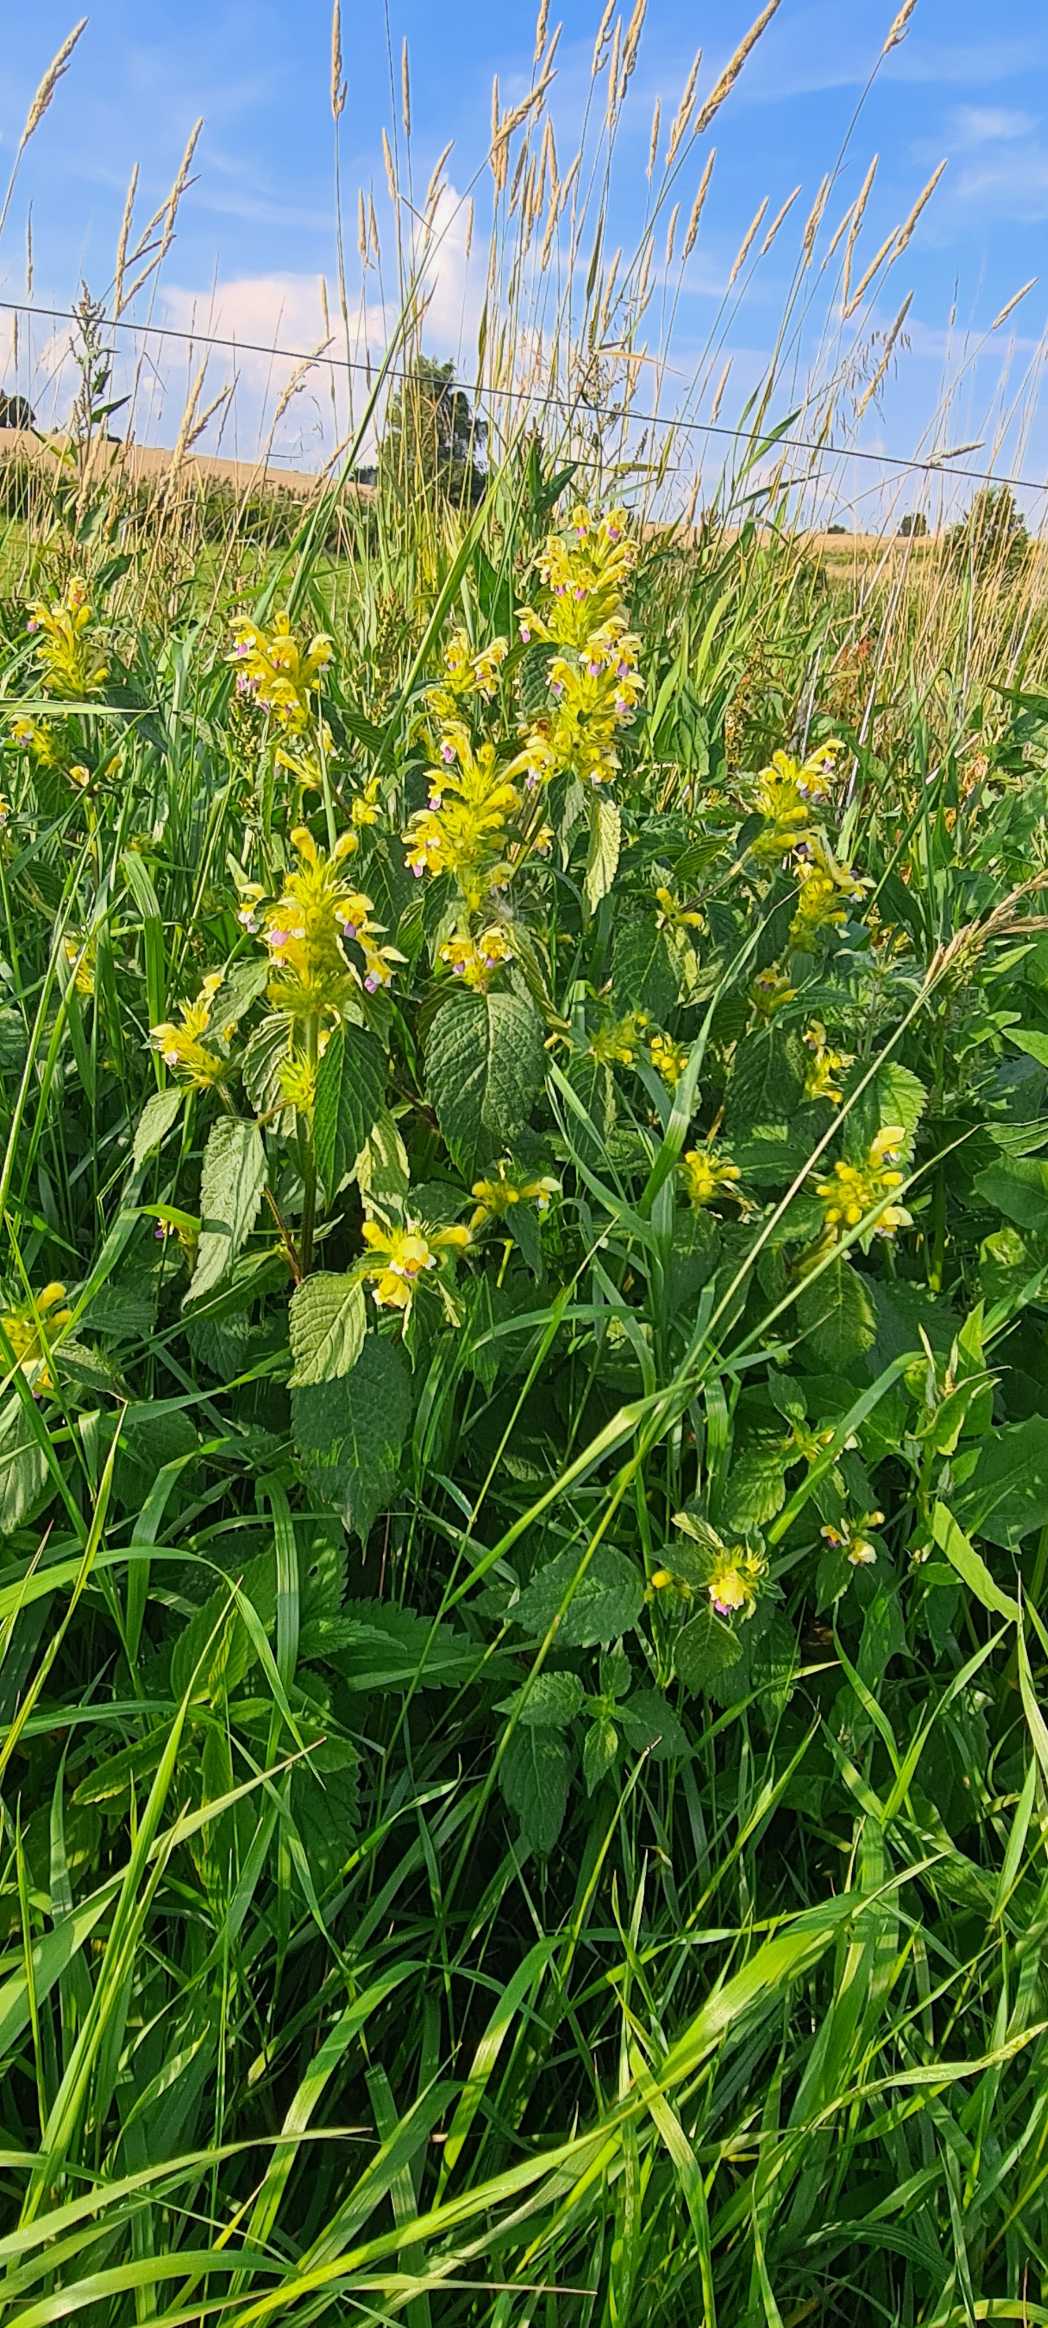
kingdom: Plantae
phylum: Tracheophyta
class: Magnoliopsida
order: Lamiales
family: Lamiaceae
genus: Galeopsis
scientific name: Galeopsis speciosa
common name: Hamp-hanekro
